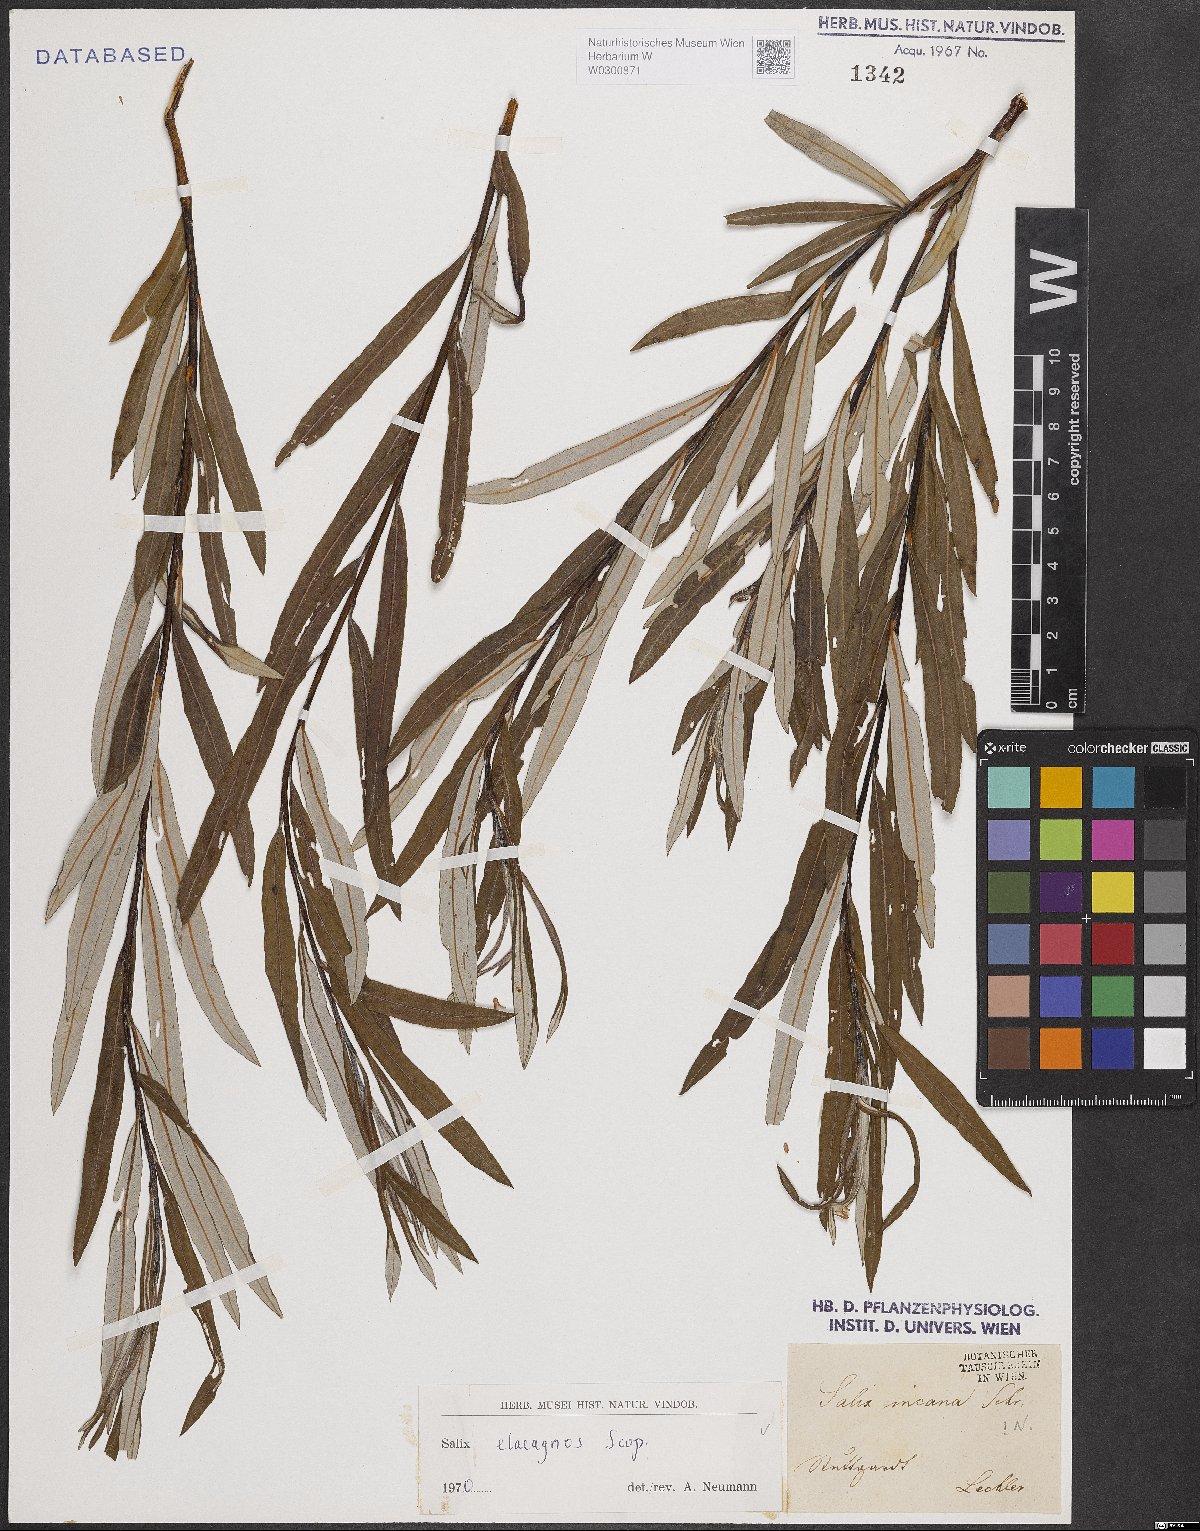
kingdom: Plantae
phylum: Tracheophyta
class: Magnoliopsida
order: Malpighiales
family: Salicaceae
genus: Salix
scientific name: Salix eleagnos
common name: Elaeagnus willow
